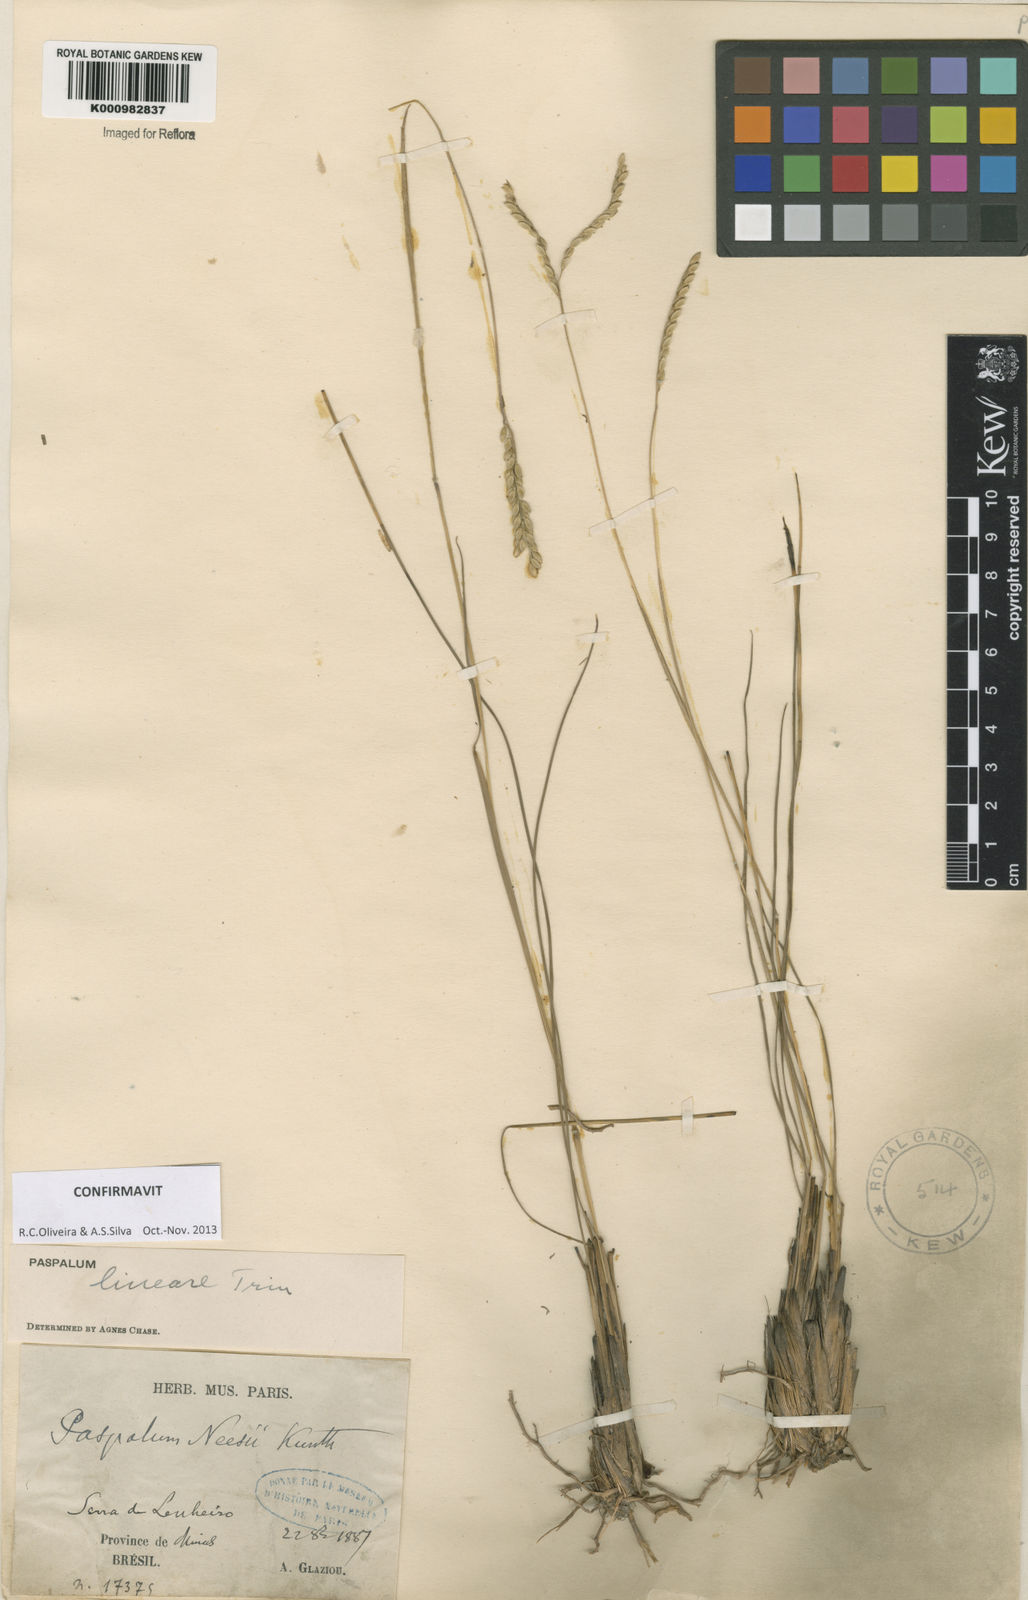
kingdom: Plantae
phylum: Tracheophyta
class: Liliopsida
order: Poales
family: Poaceae
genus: Paspalum
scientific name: Paspalum lineare
